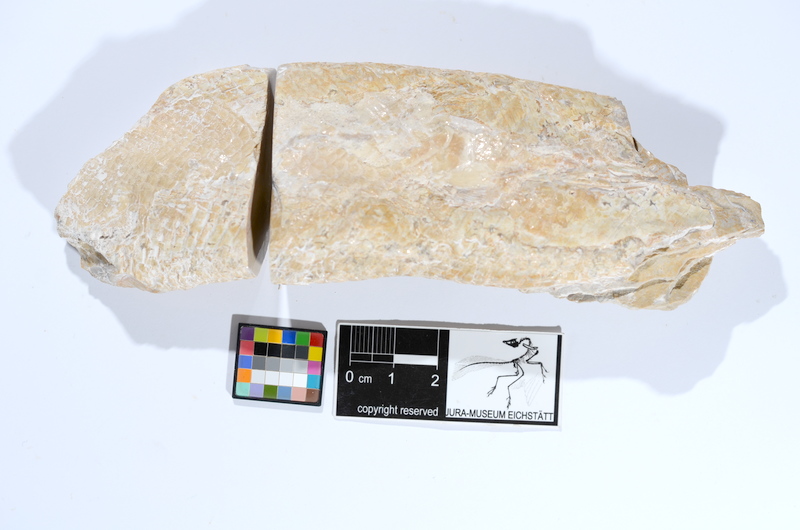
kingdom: Animalia
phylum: Chordata
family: Ankylophoridae
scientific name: Ankylophoridae
